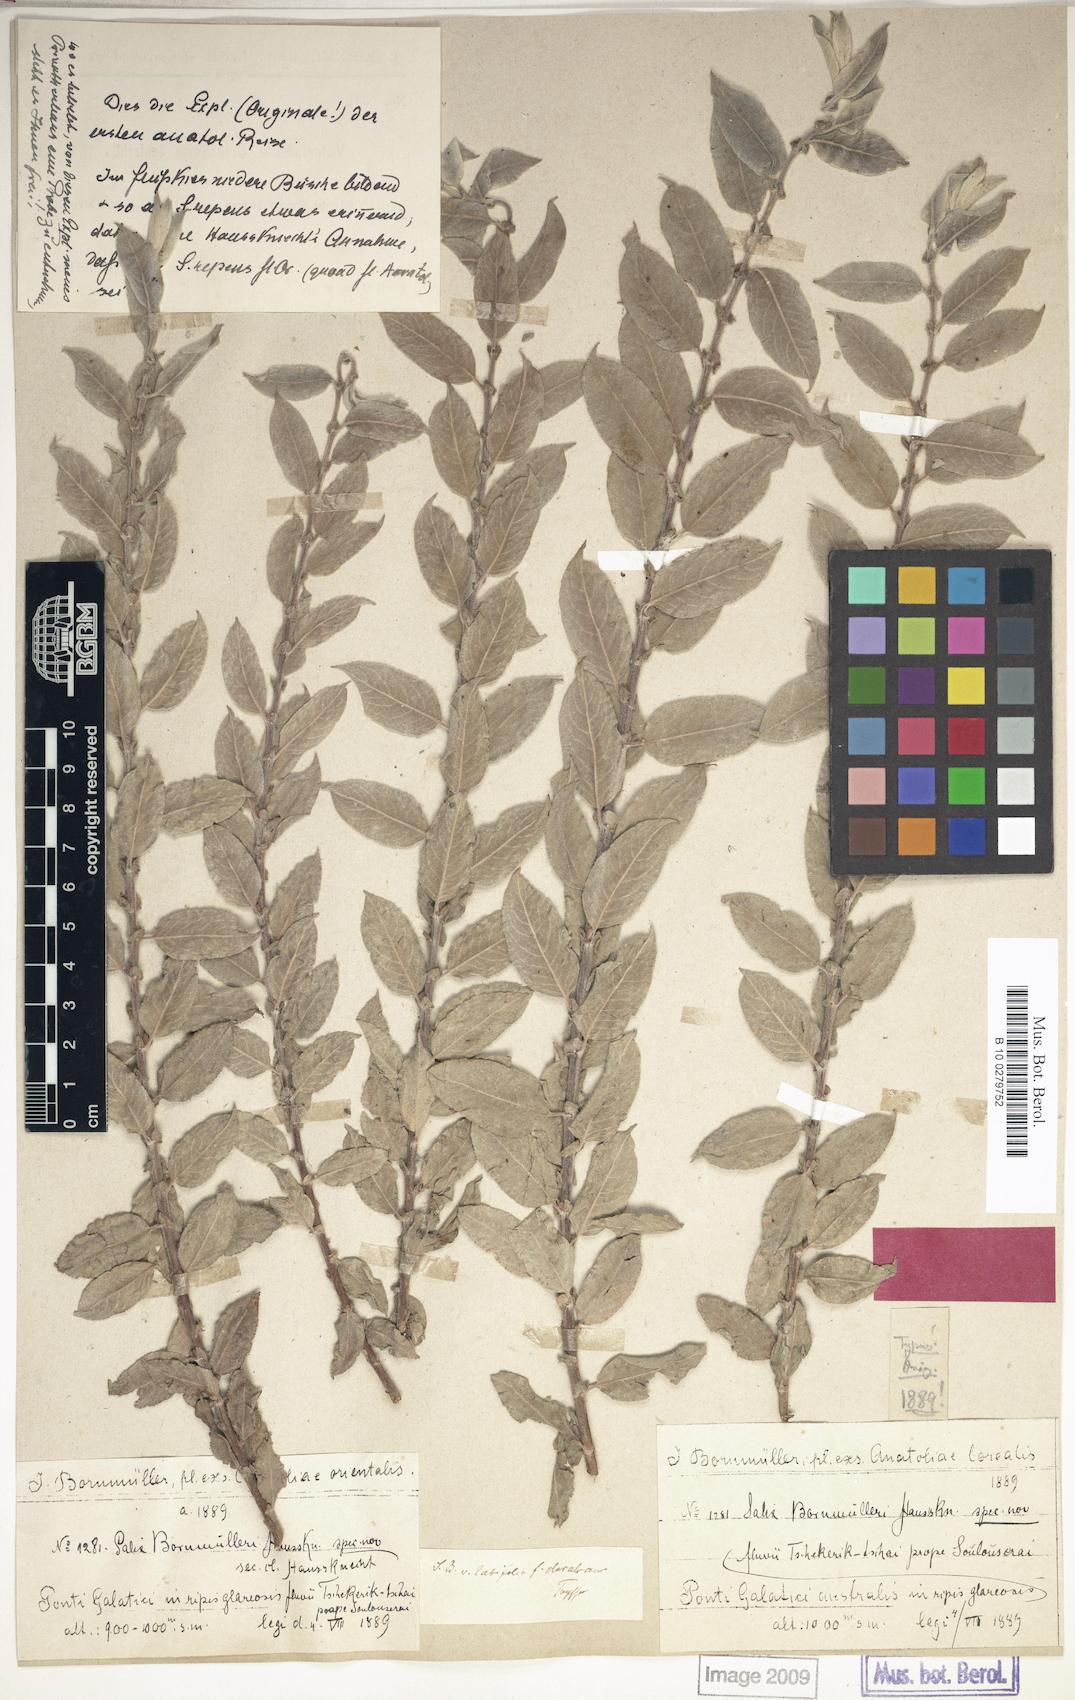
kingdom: Plantae
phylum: Tracheophyta
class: Magnoliopsida
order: Malpighiales
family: Salicaceae
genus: Salix
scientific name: Salix triandra
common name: Almond willow
